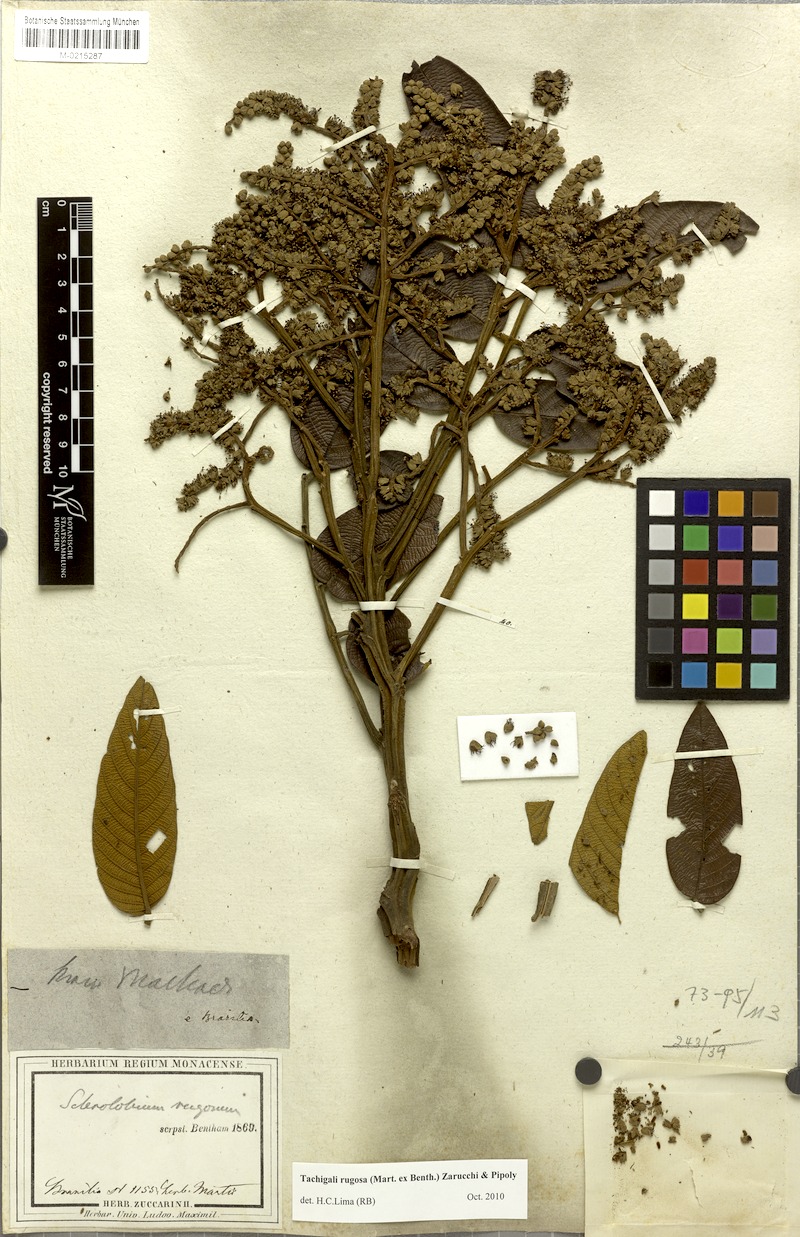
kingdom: Plantae
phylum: Tracheophyta
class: Magnoliopsida
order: Fabales
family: Fabaceae
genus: Tachigali
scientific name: Tachigali rugosa
